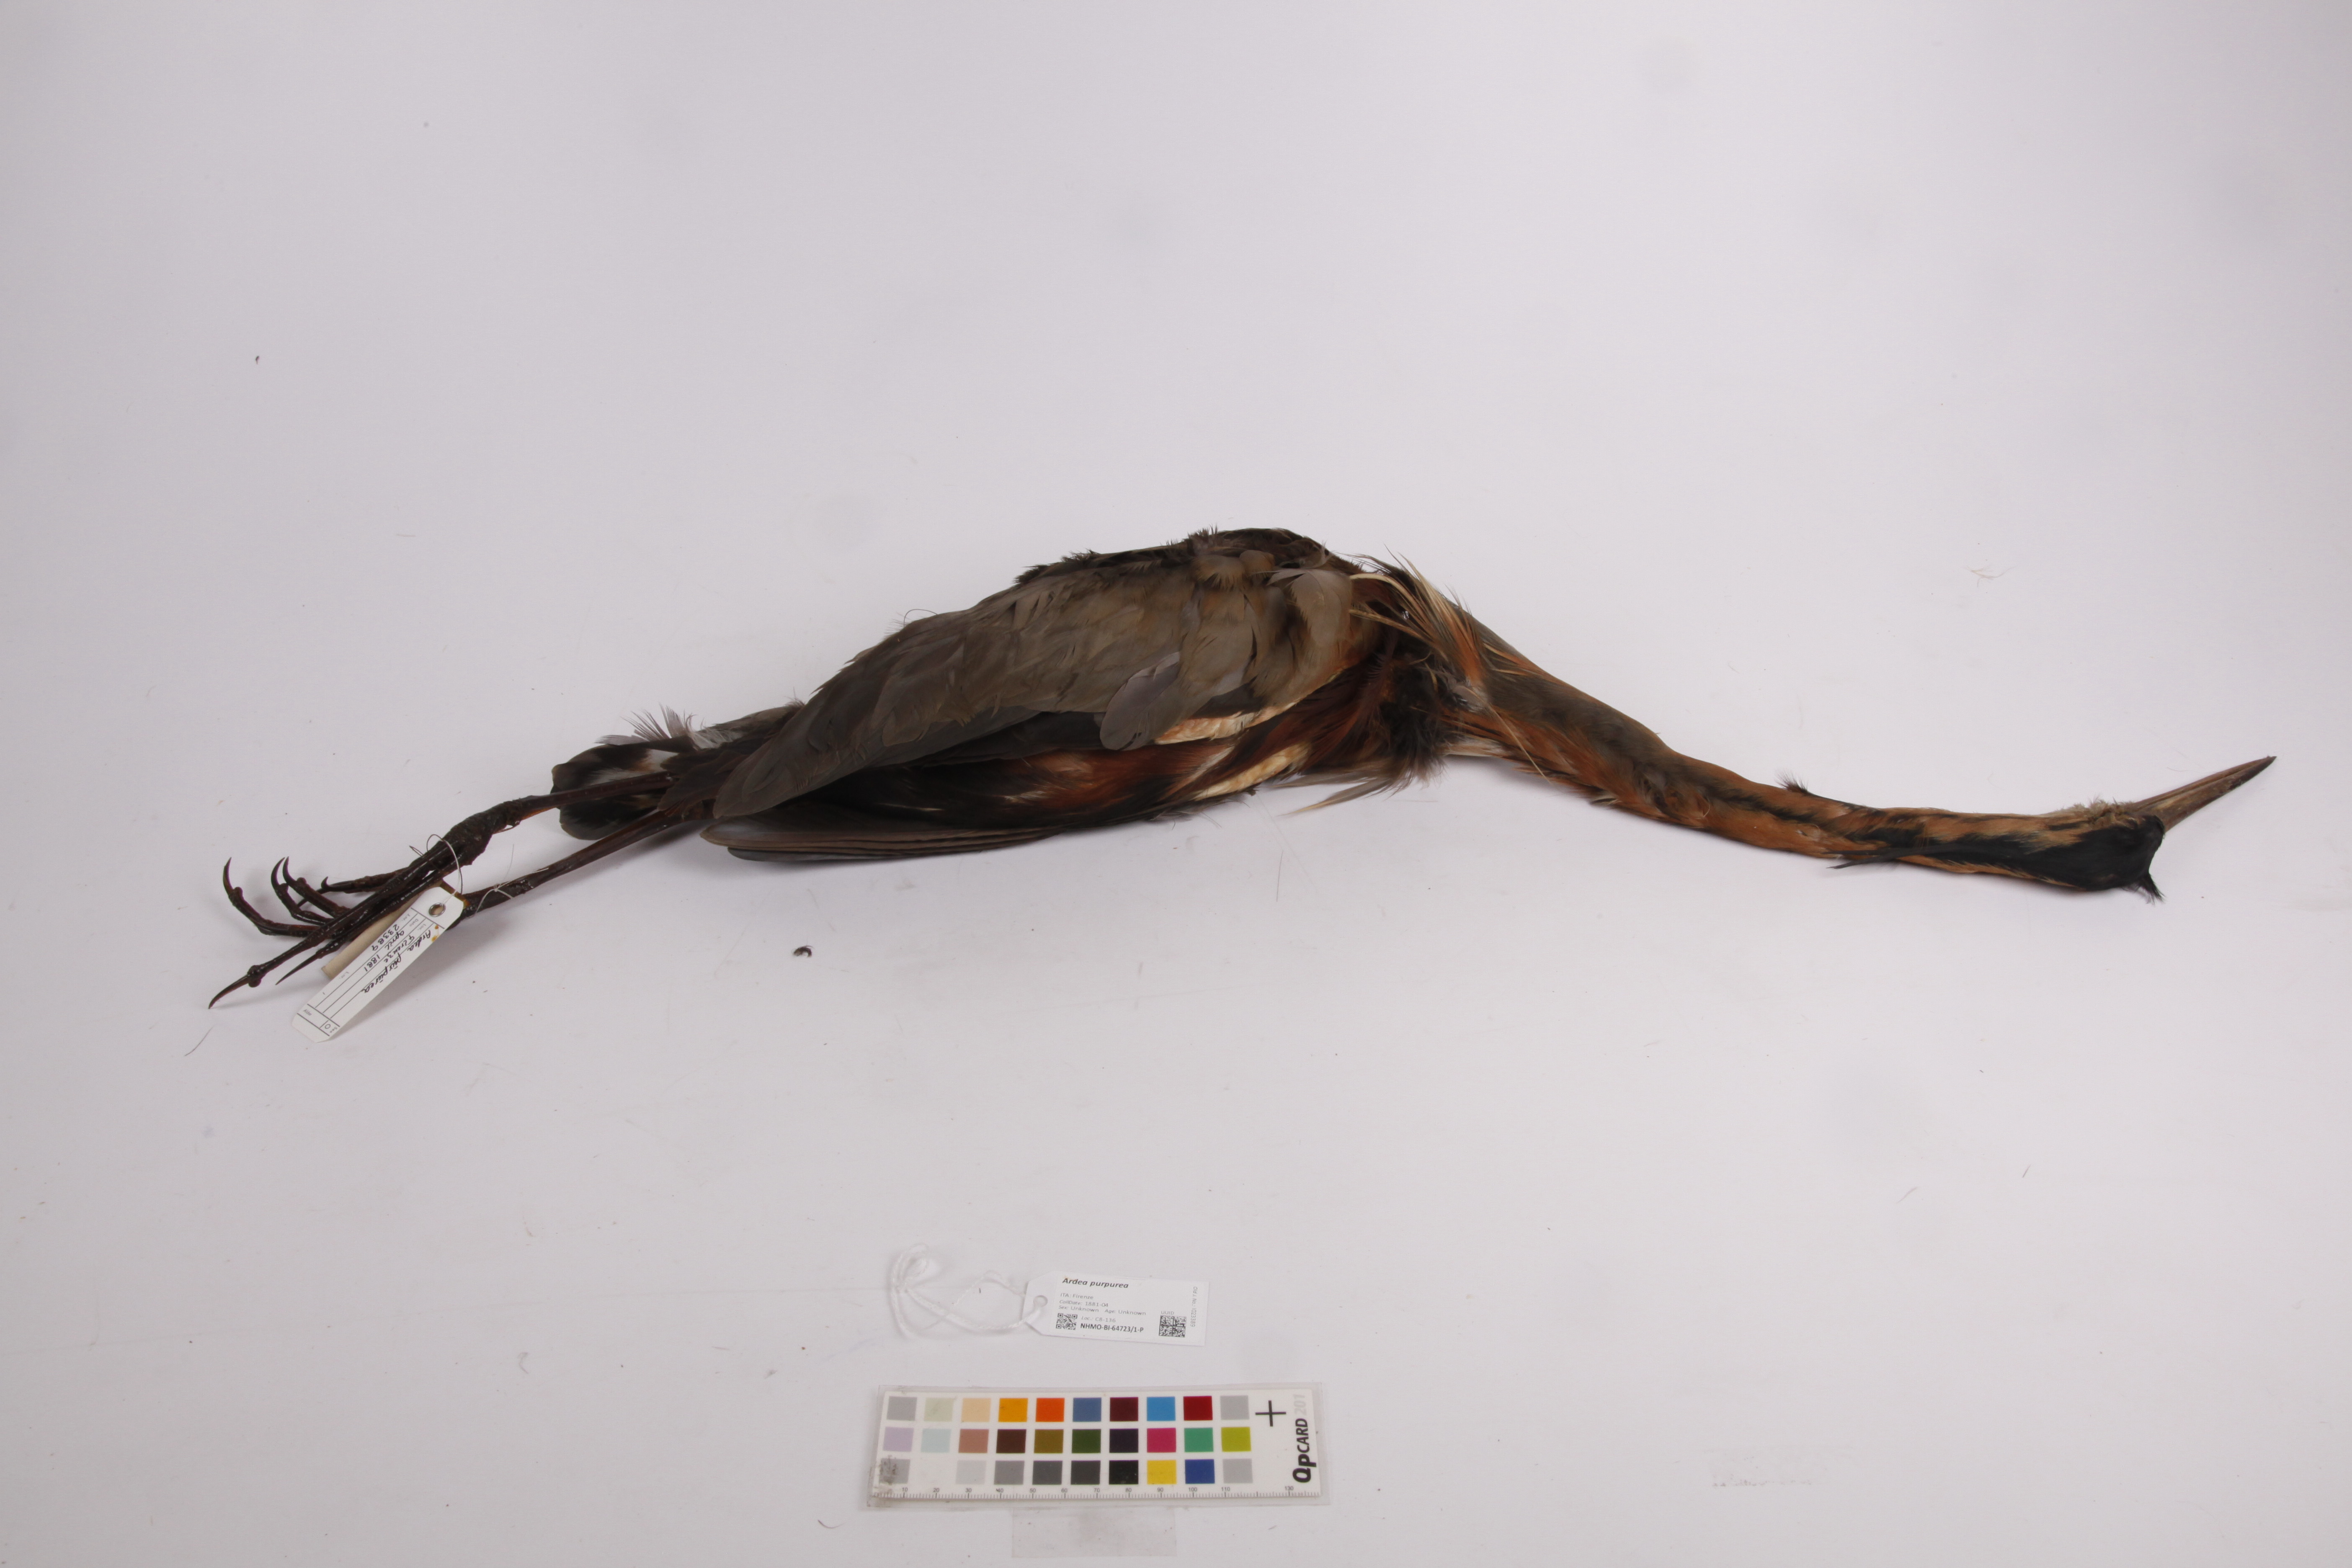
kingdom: Animalia
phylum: Chordata
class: Aves
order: Pelecaniformes
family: Ardeidae
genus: Ardea
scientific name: Ardea purpurea
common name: Purple heron
